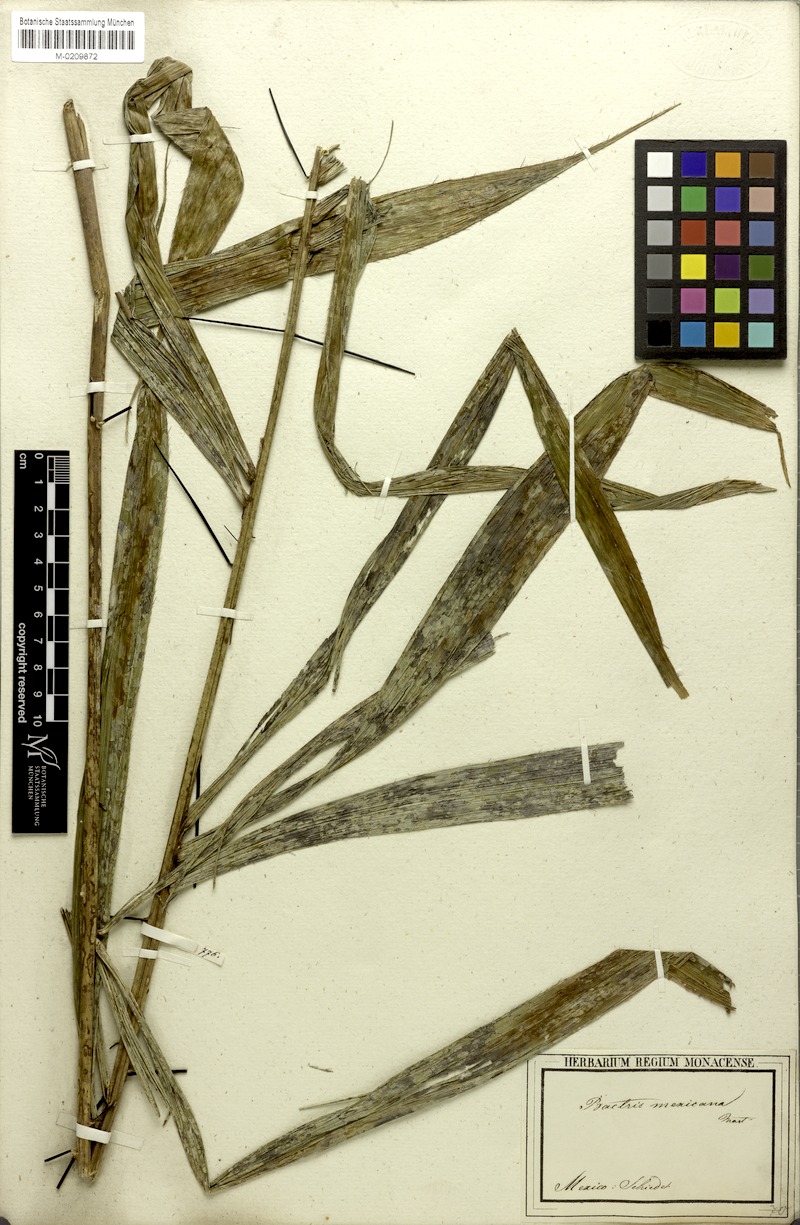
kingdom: Plantae
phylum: Tracheophyta
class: Liliopsida
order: Arecales
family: Arecaceae
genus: Bactris
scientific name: Bactris mexicana
